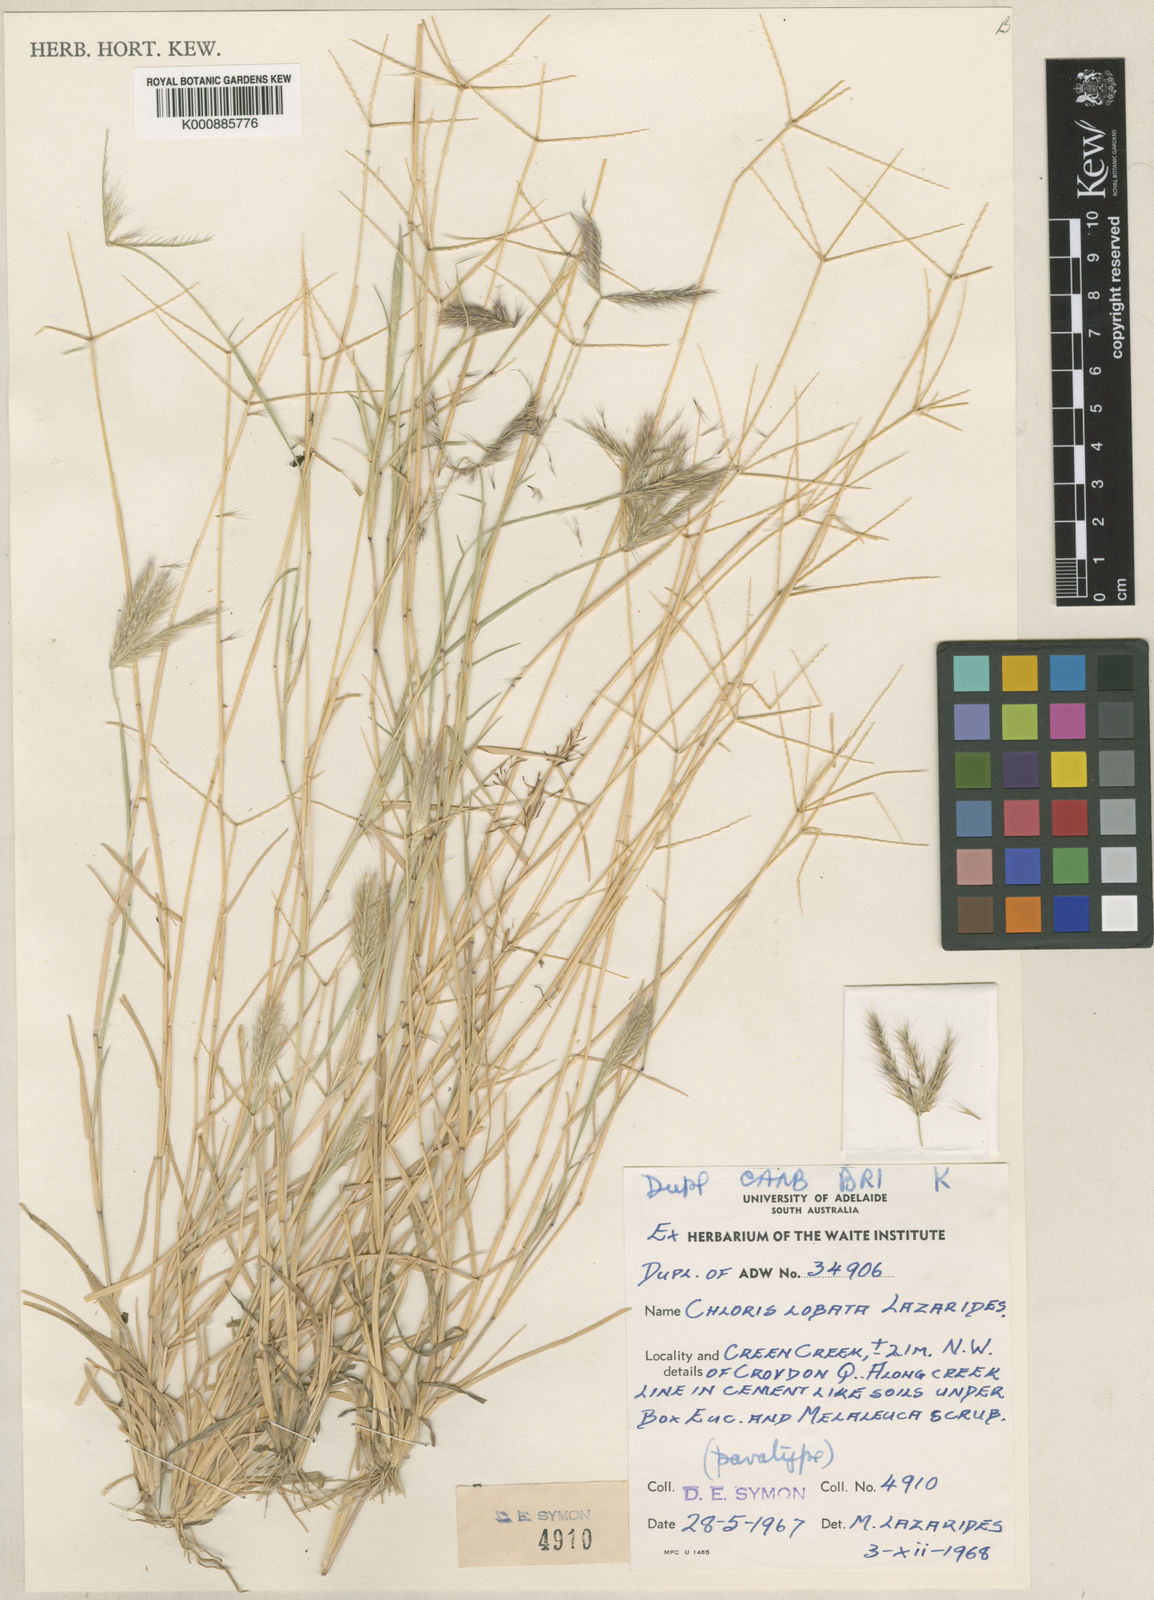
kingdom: Plantae
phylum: Tracheophyta
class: Liliopsida
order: Poales
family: Poaceae
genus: Chloris
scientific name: Chloris lobata
